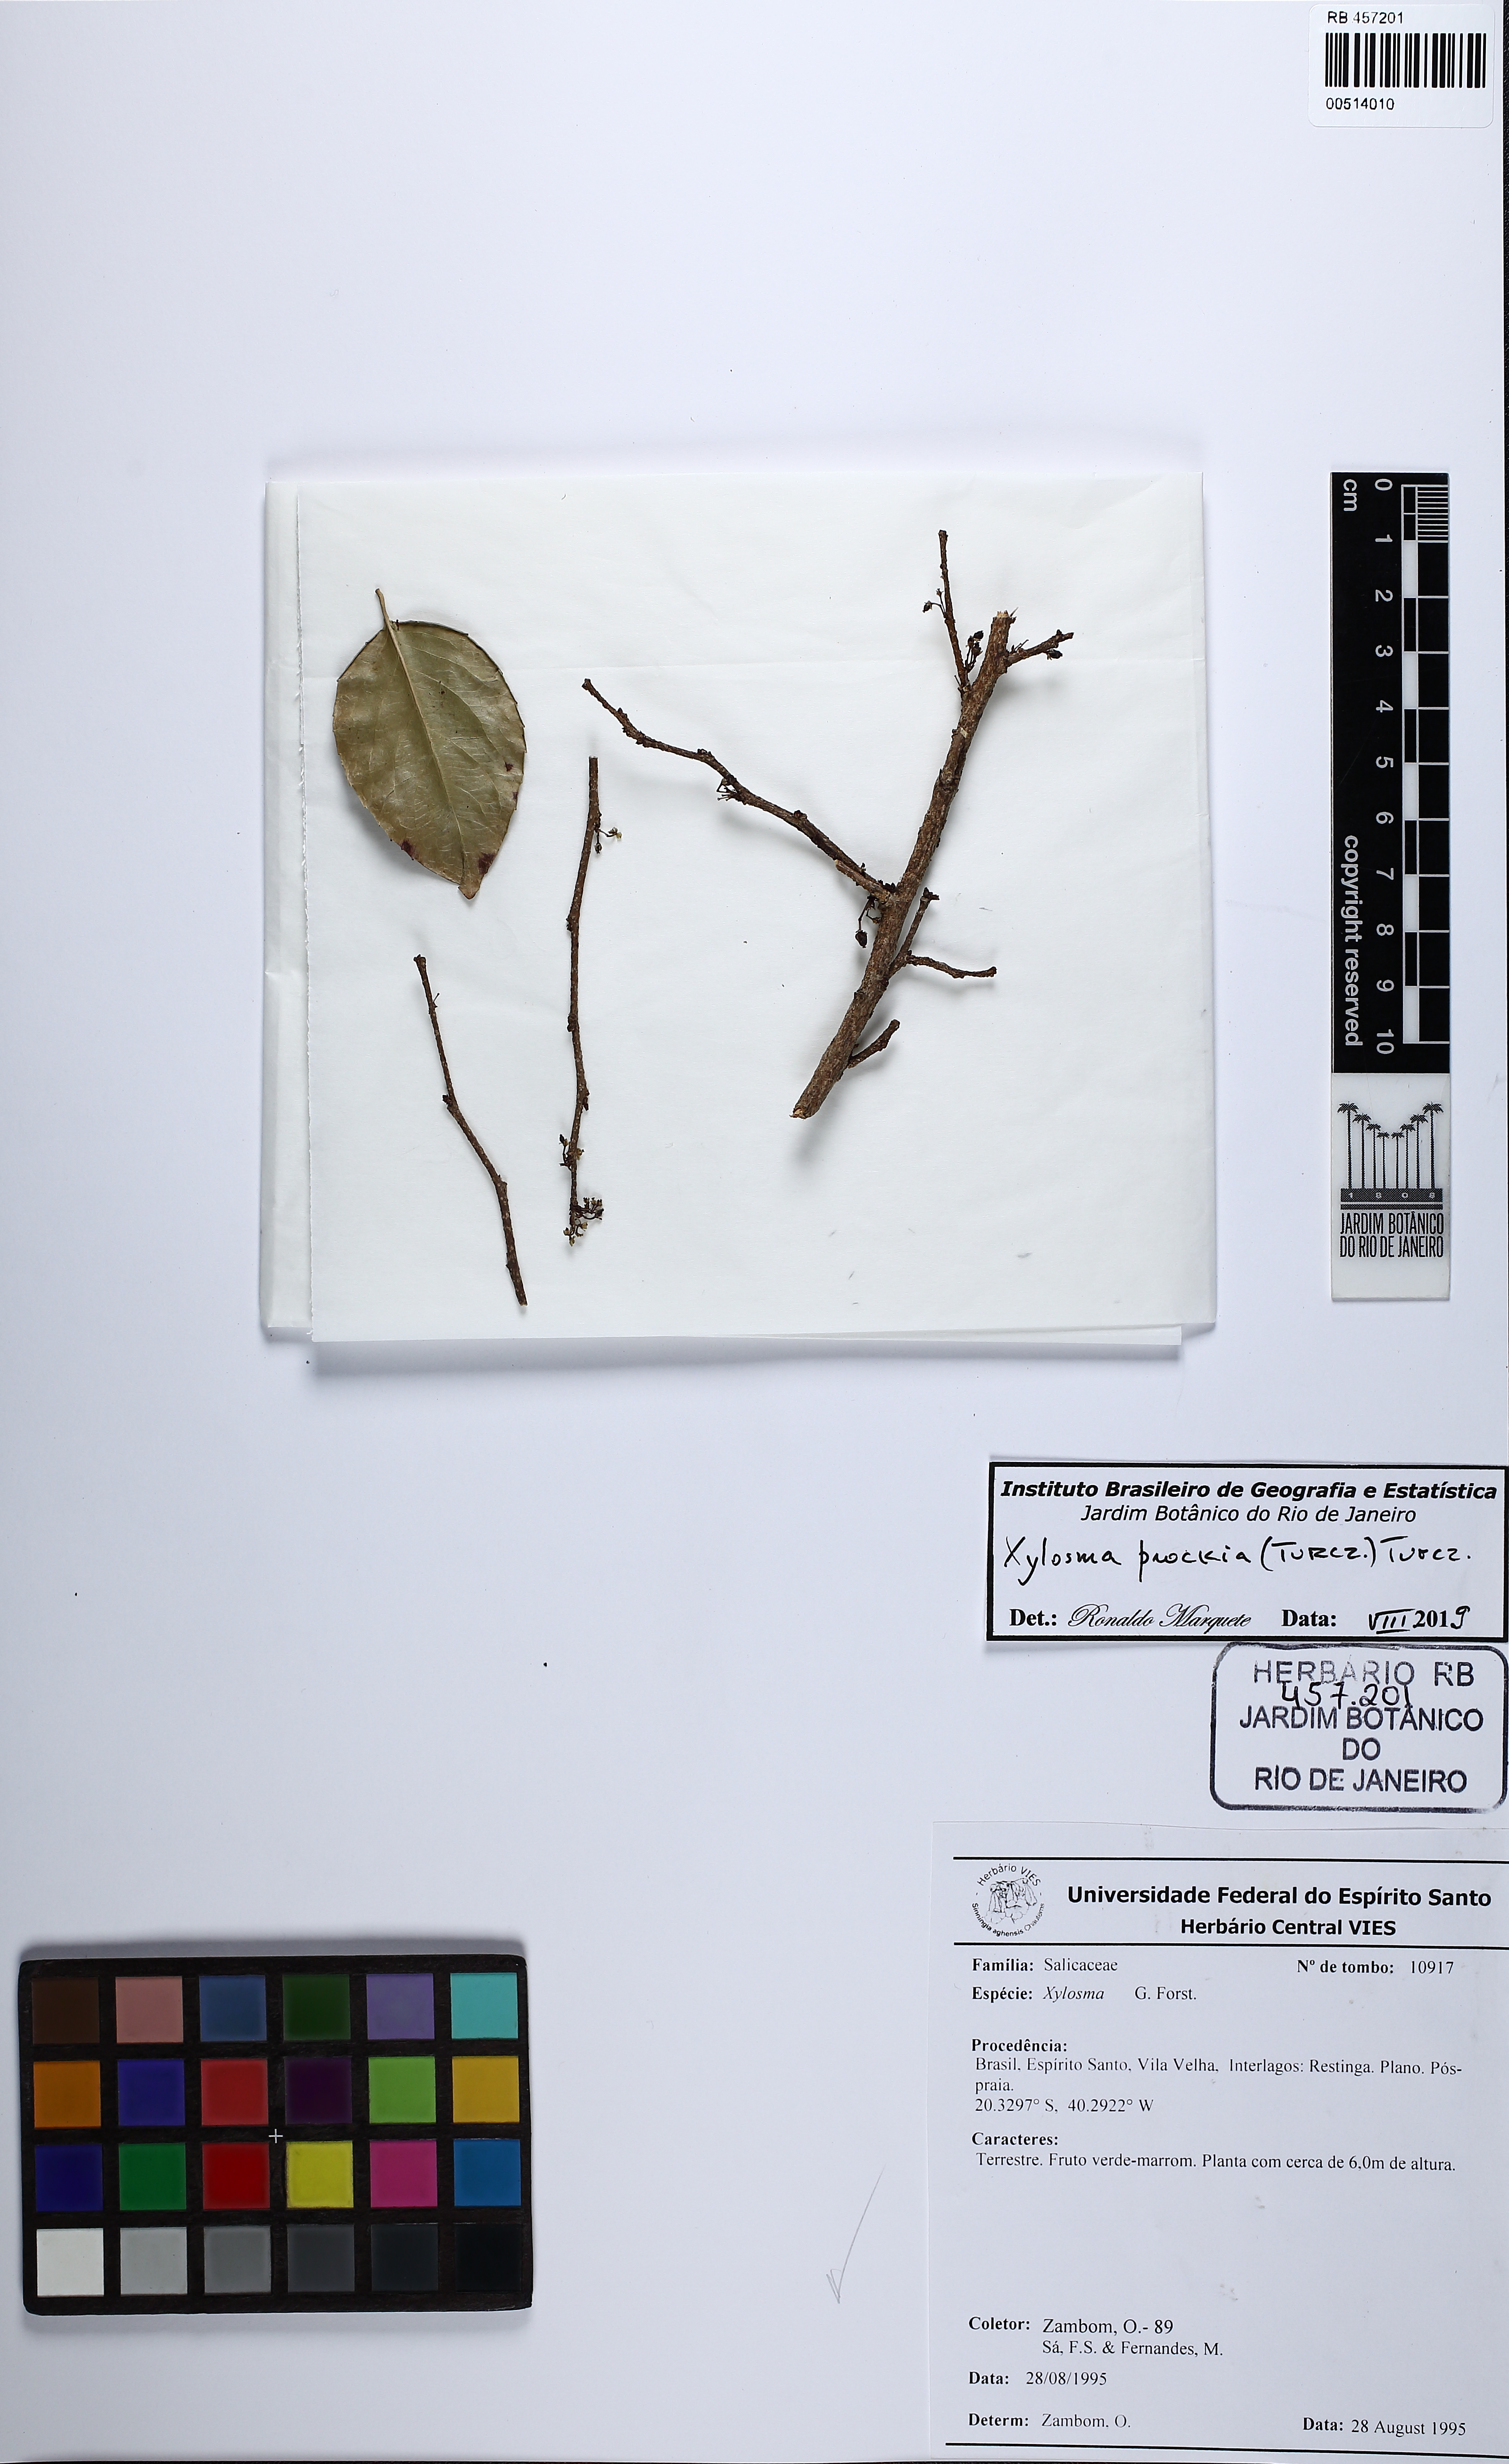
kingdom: Plantae
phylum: Tracheophyta
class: Magnoliopsida
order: Malpighiales
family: Salicaceae
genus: Xylosma
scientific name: Xylosma prockia
